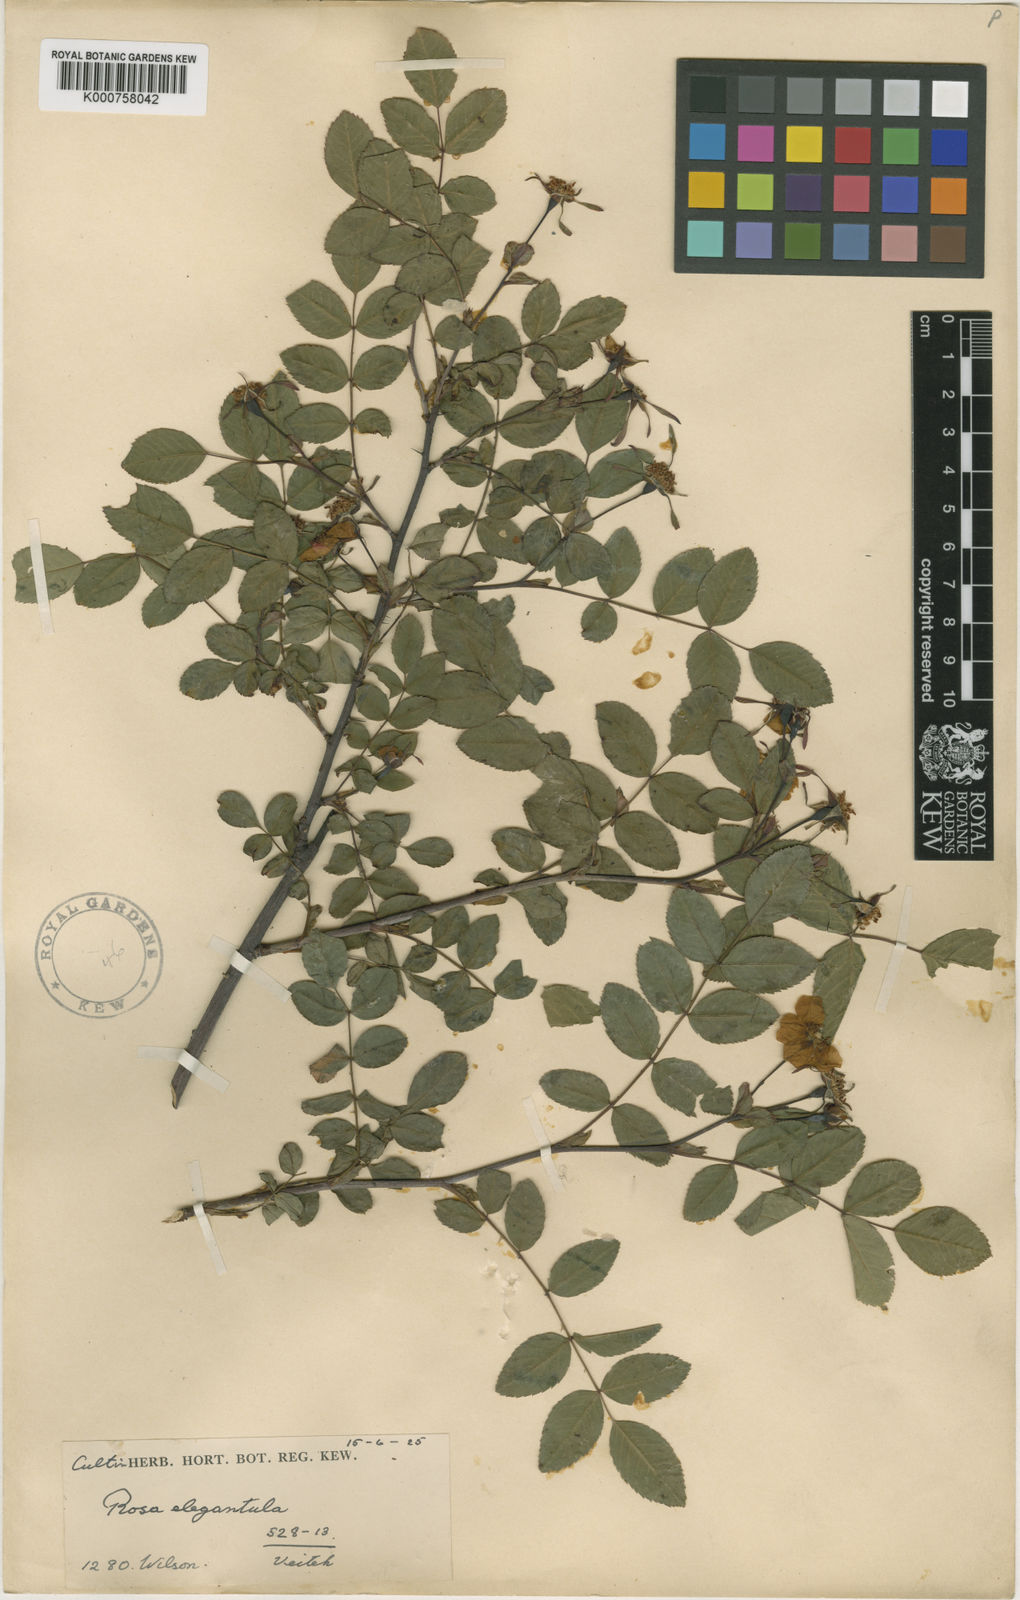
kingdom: Plantae
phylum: Tracheophyta
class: Magnoliopsida
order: Rosales
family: Rosaceae
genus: Rosa
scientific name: Rosa persetosa
